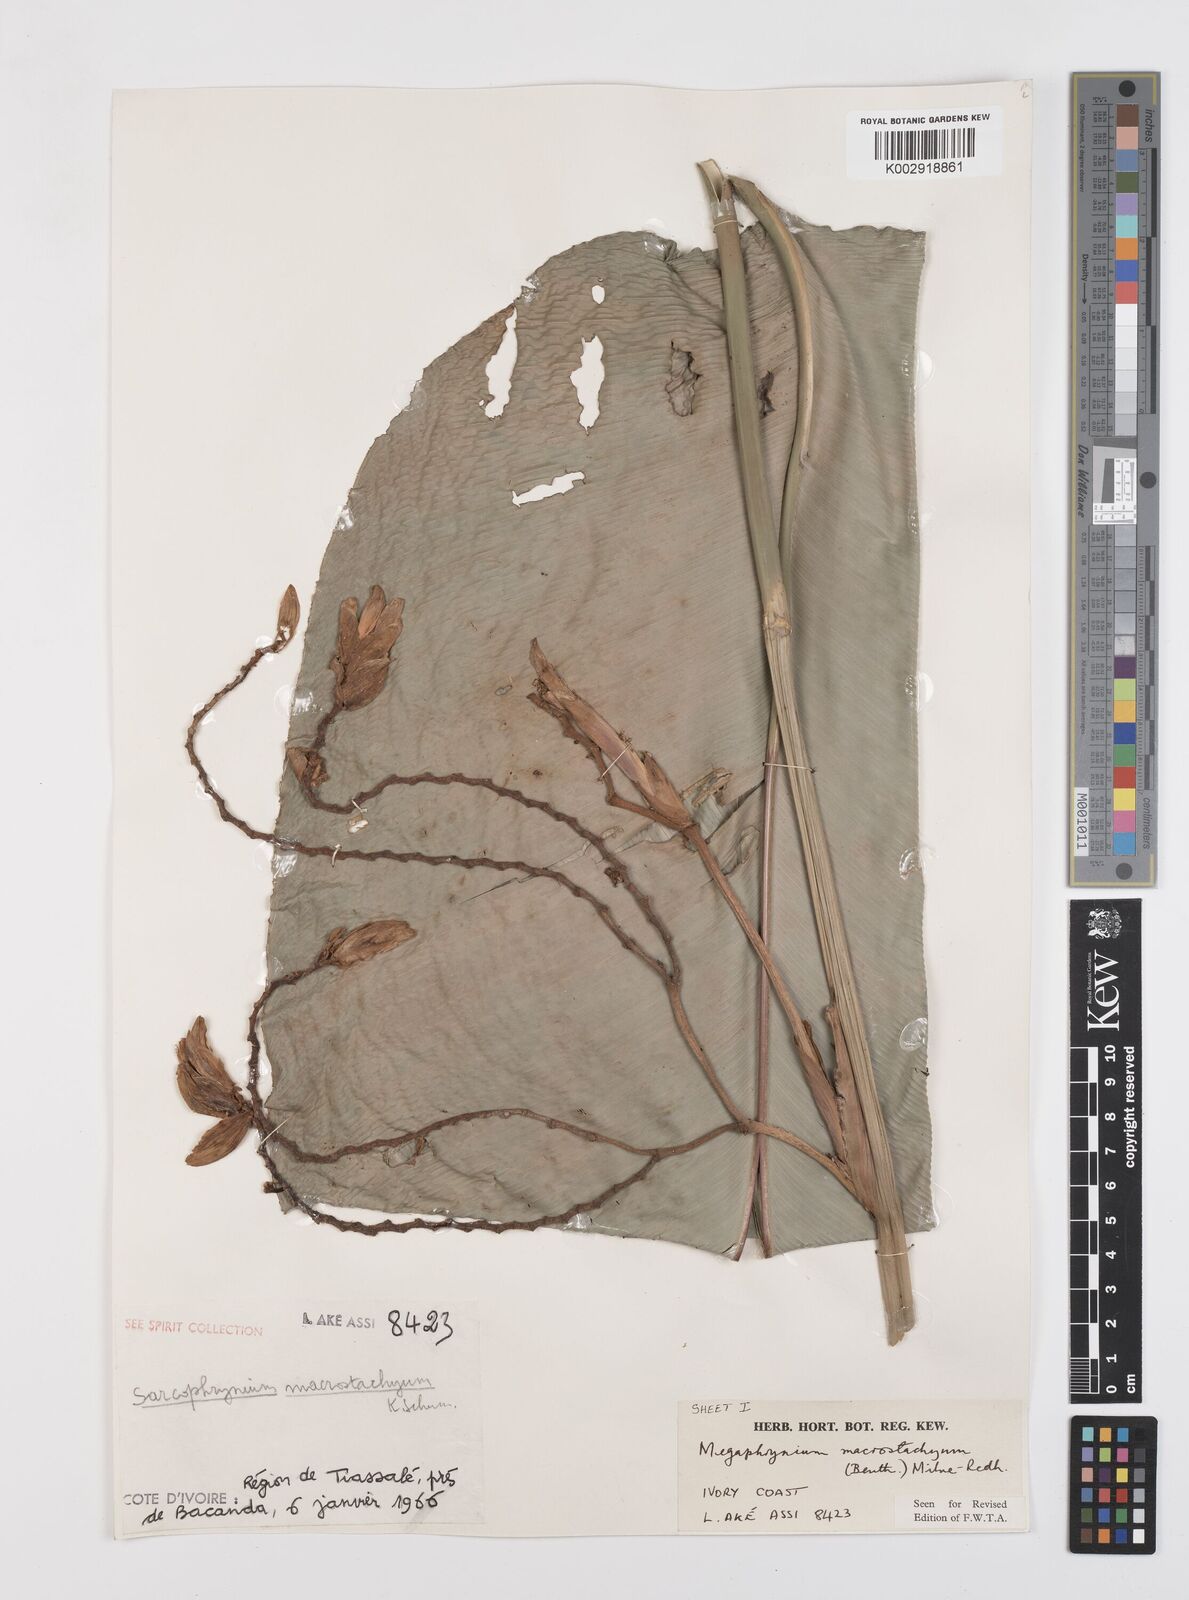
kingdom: Plantae
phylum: Tracheophyta
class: Liliopsida
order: Zingiberales
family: Marantaceae
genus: Megaphrynium
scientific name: Megaphrynium macrostachyum
